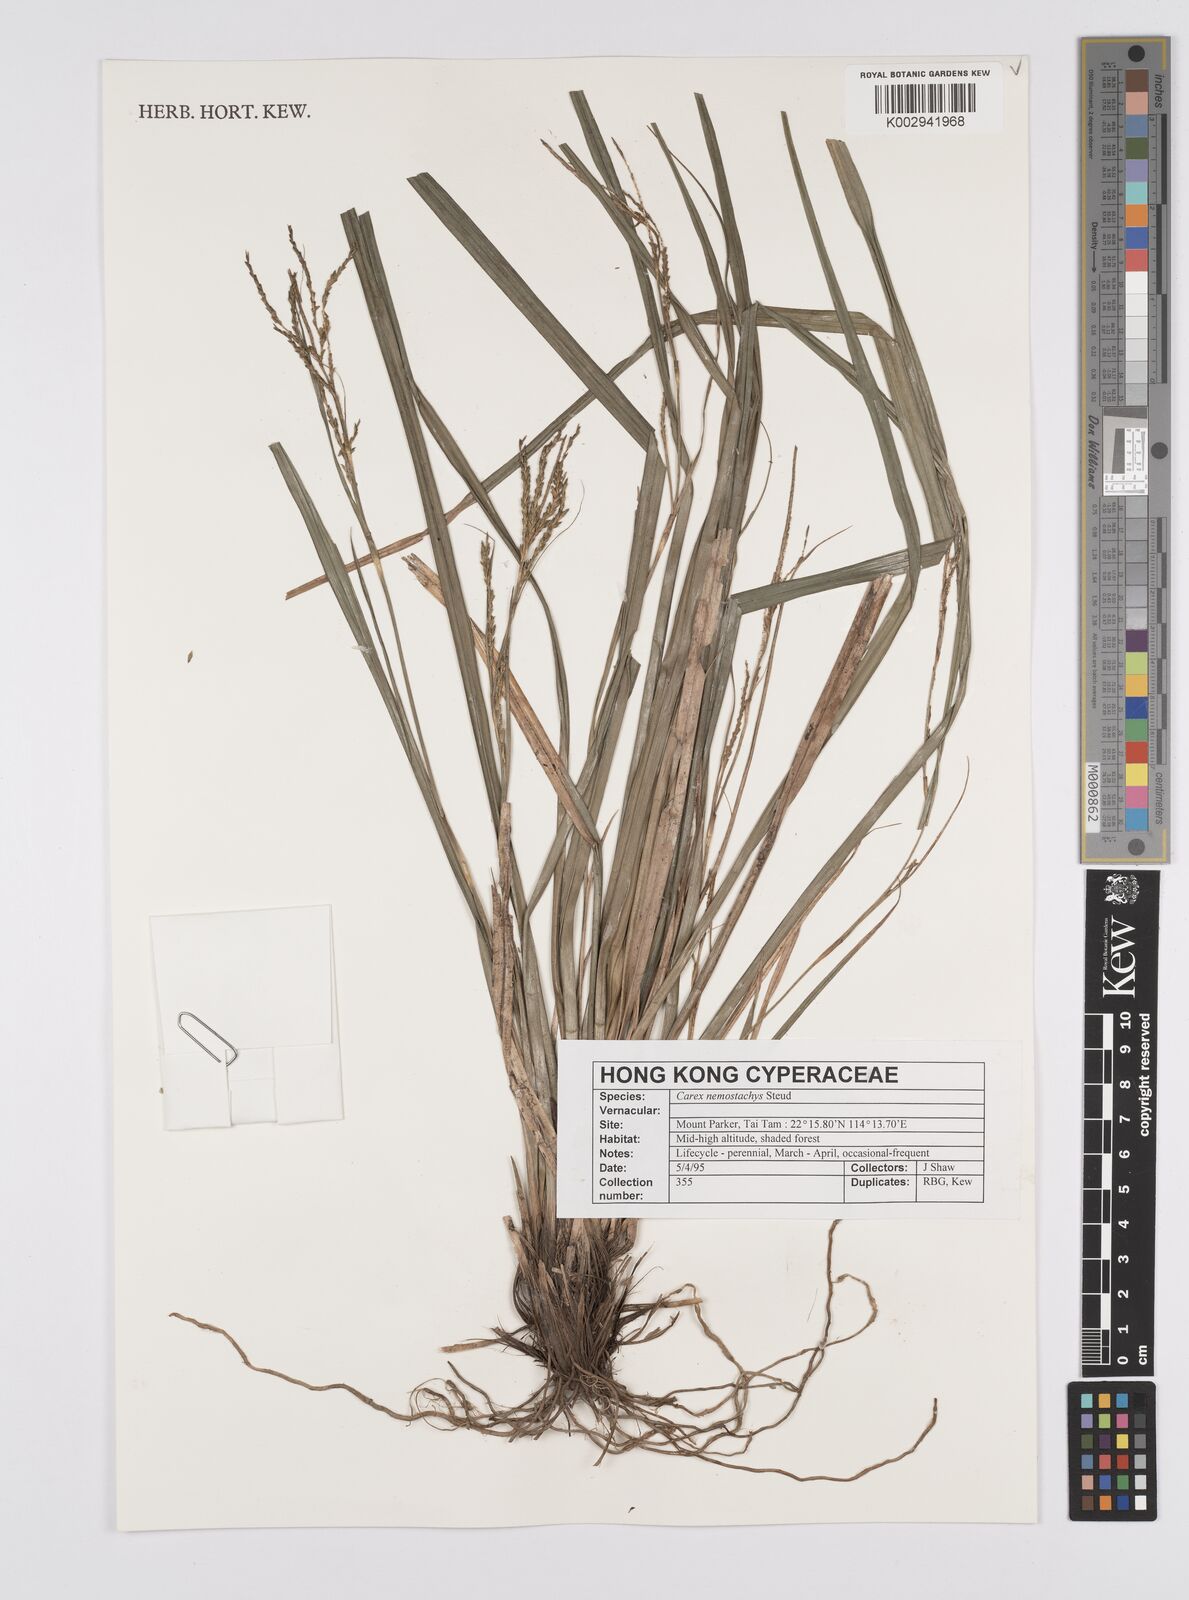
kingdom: Plantae
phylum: Tracheophyta
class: Liliopsida
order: Poales
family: Cyperaceae
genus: Carex
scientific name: Carex nemostachys
